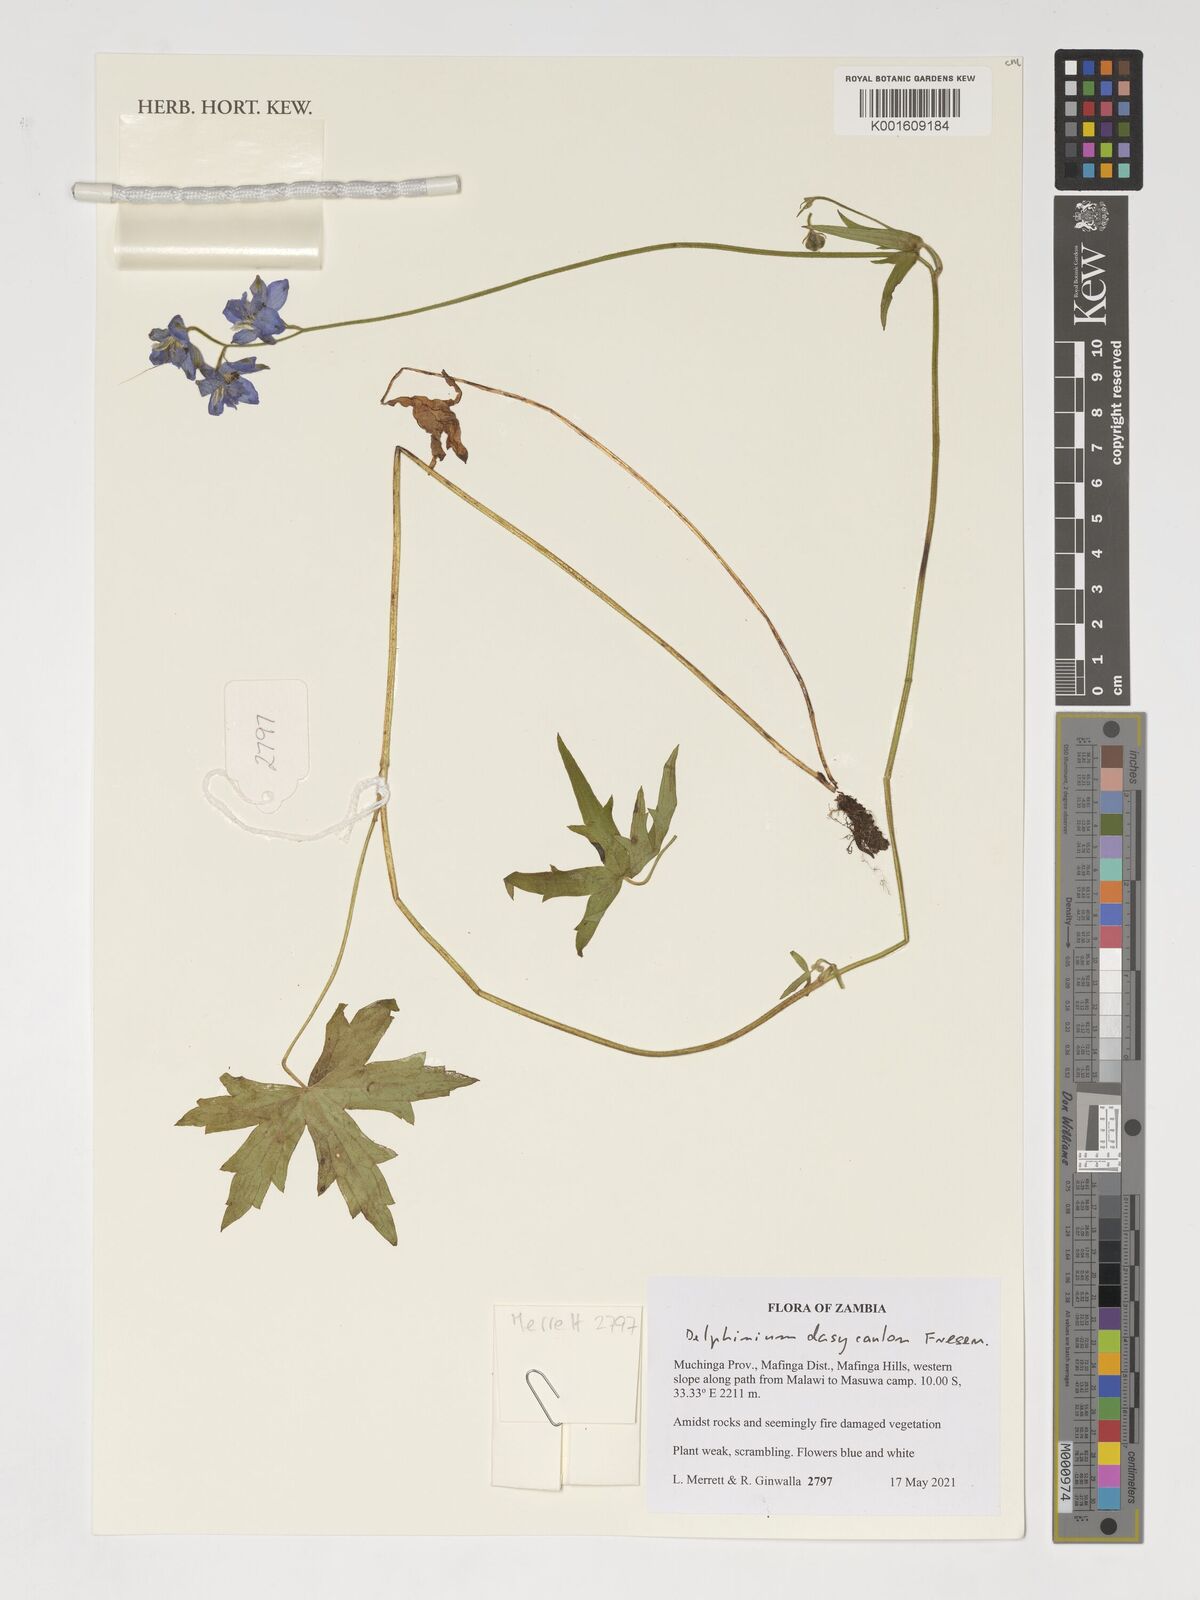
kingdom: Plantae
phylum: Tracheophyta
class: Magnoliopsida
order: Ranunculales
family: Ranunculaceae
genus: Delphinium
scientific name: Delphinium dasycaulon
